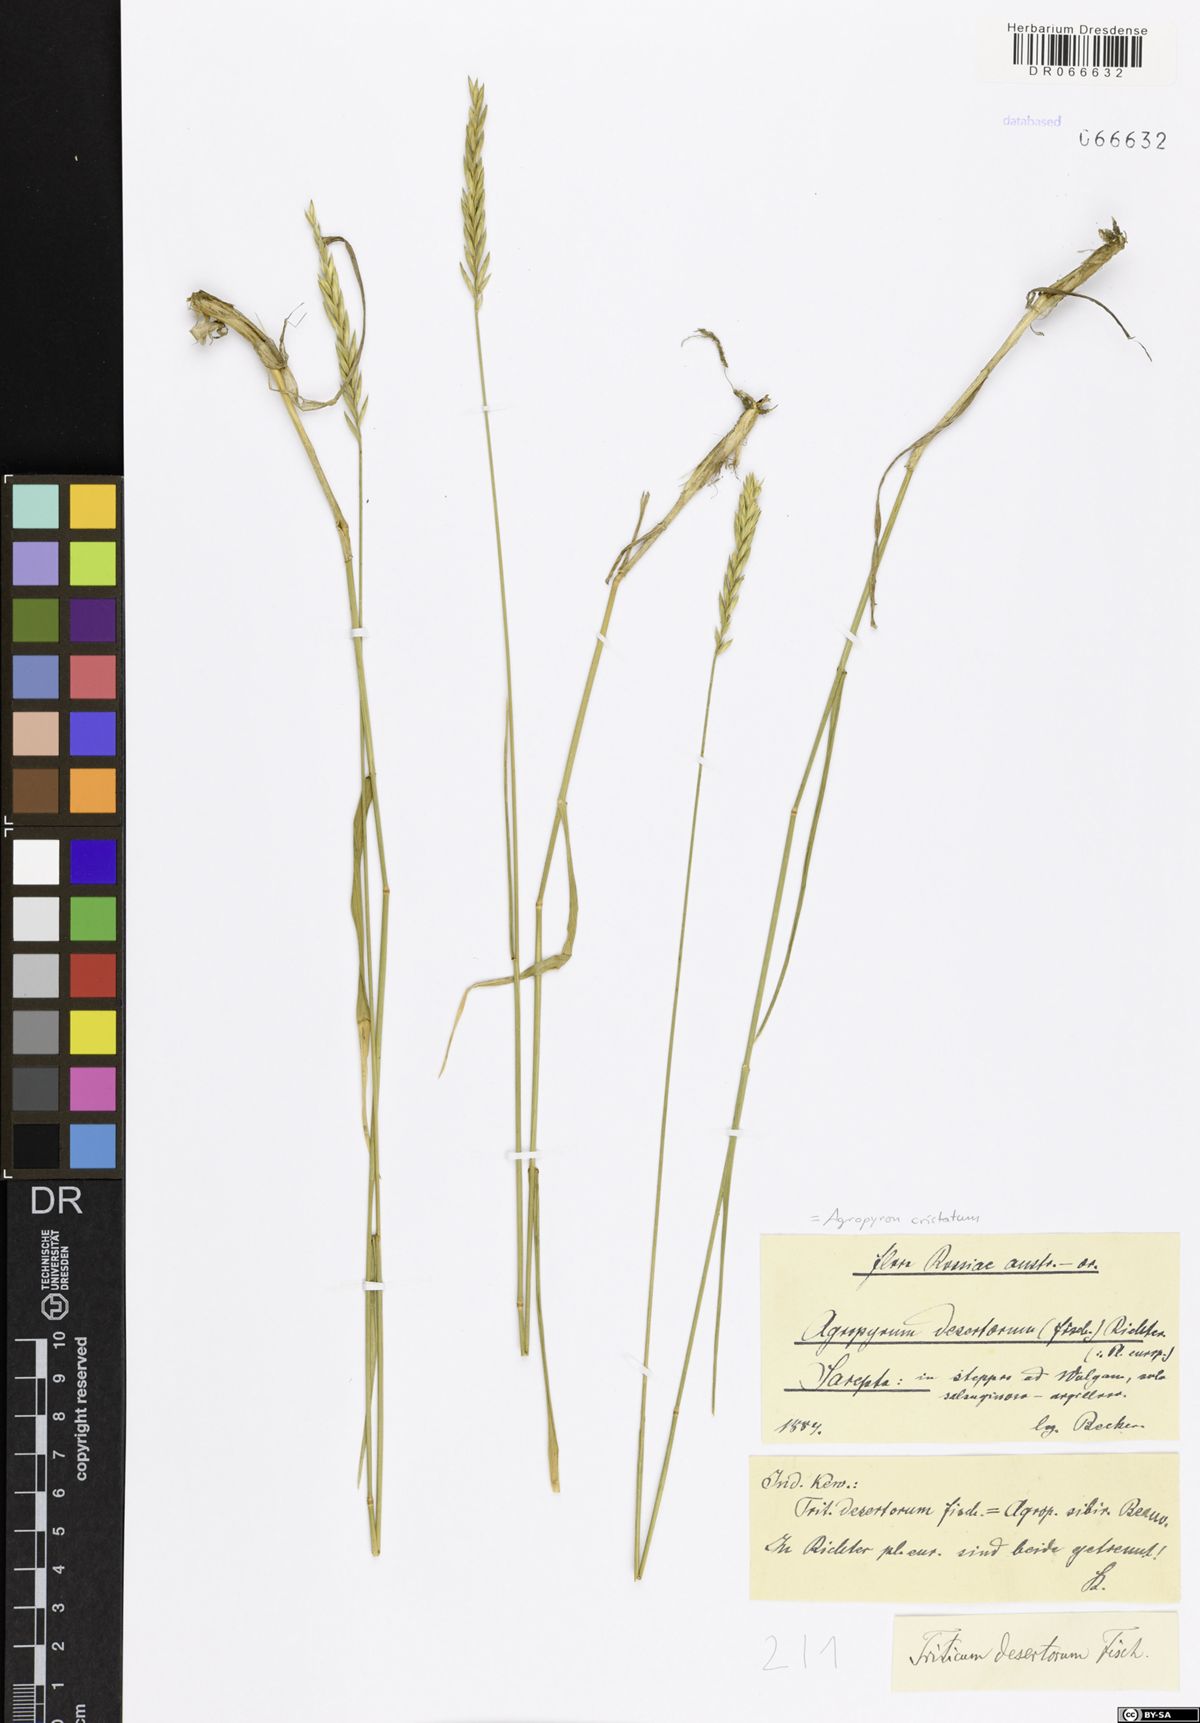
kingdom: Plantae
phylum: Tracheophyta
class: Liliopsida
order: Poales
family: Poaceae
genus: Agropyron
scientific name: Agropyron cristatum
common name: Crested wheatgrass
